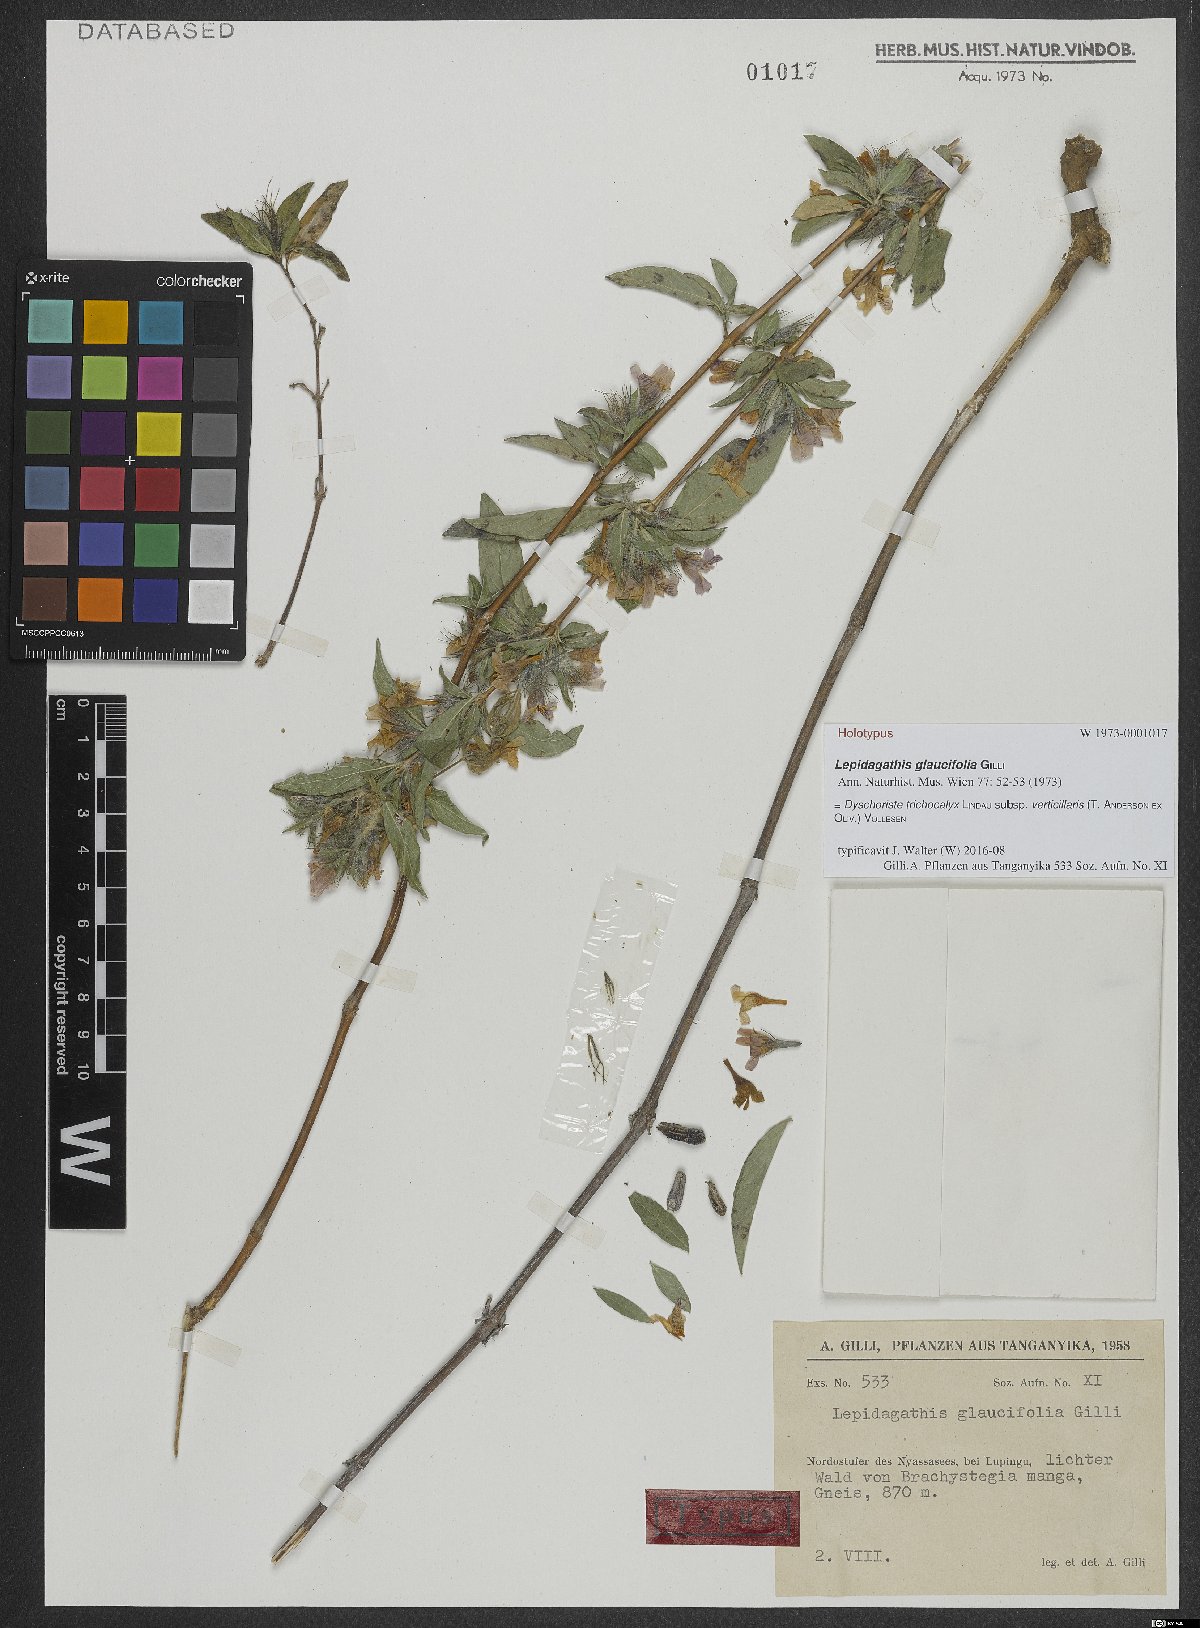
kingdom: Plantae
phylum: Tracheophyta
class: Magnoliopsida
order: Lamiales
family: Acanthaceae
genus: Dyschoriste
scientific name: Dyschoriste trichocalyx
